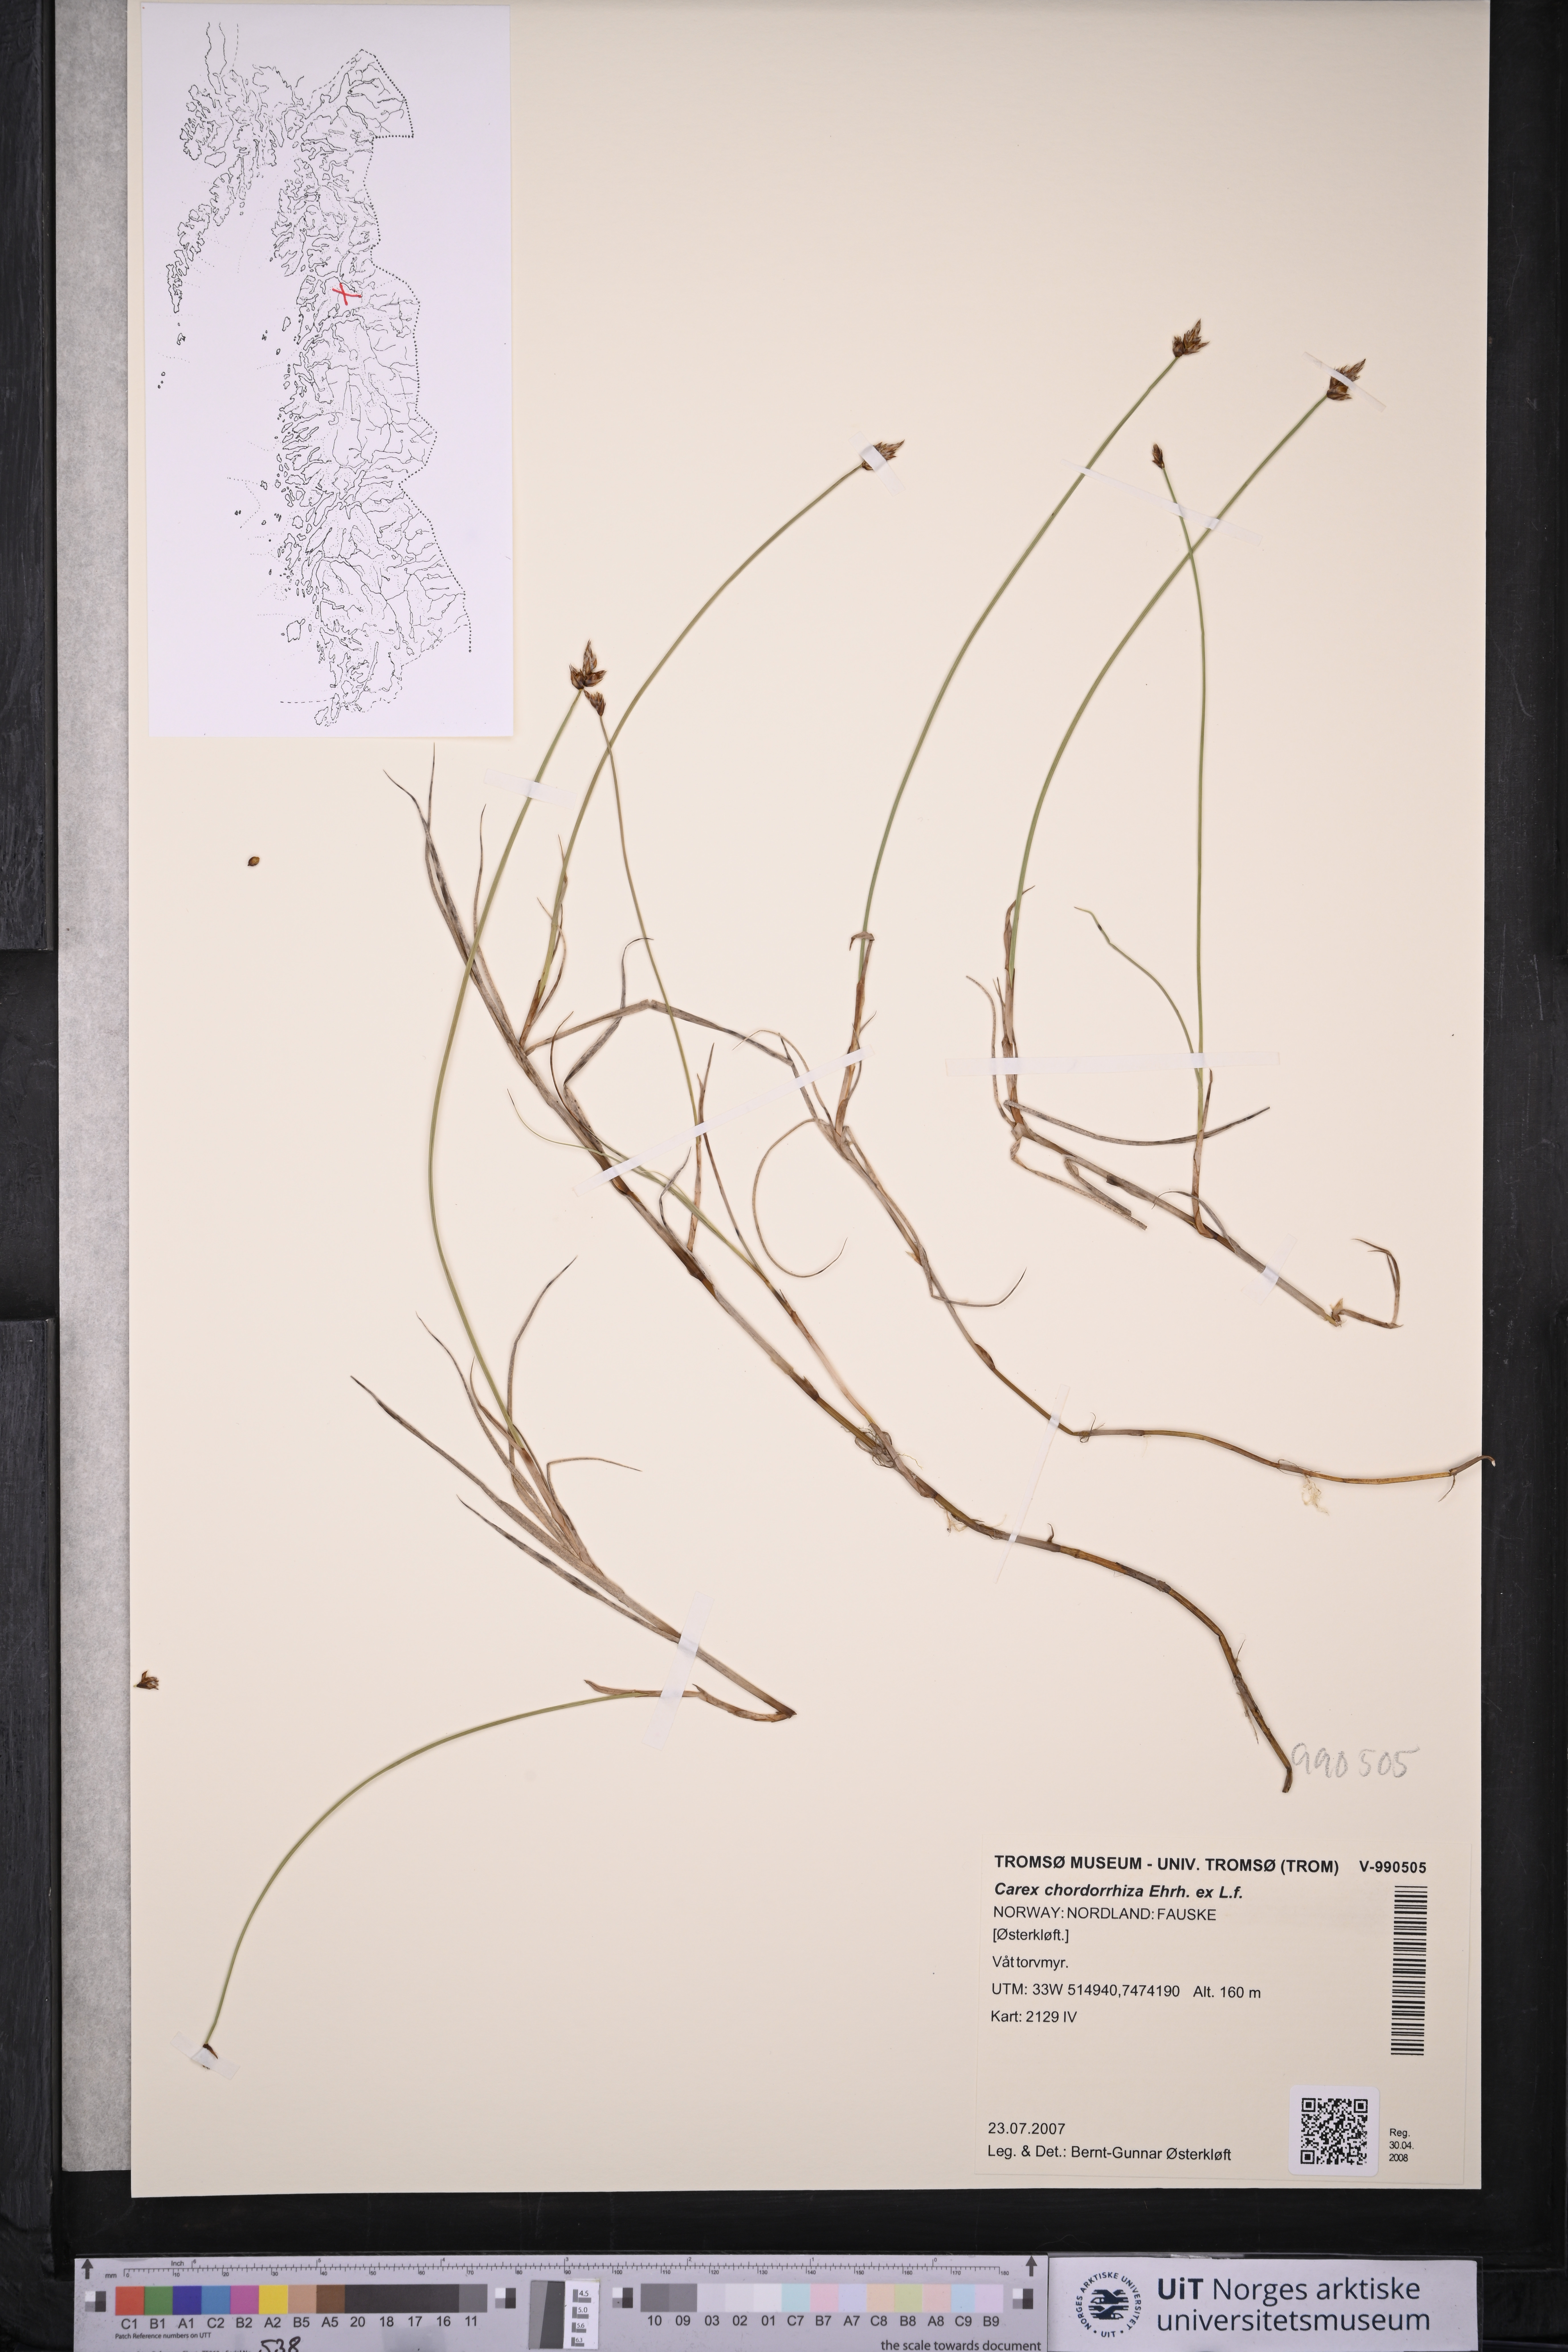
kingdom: Plantae
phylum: Tracheophyta
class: Liliopsida
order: Poales
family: Cyperaceae
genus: Carex
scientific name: Carex chordorrhiza
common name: String sedge
